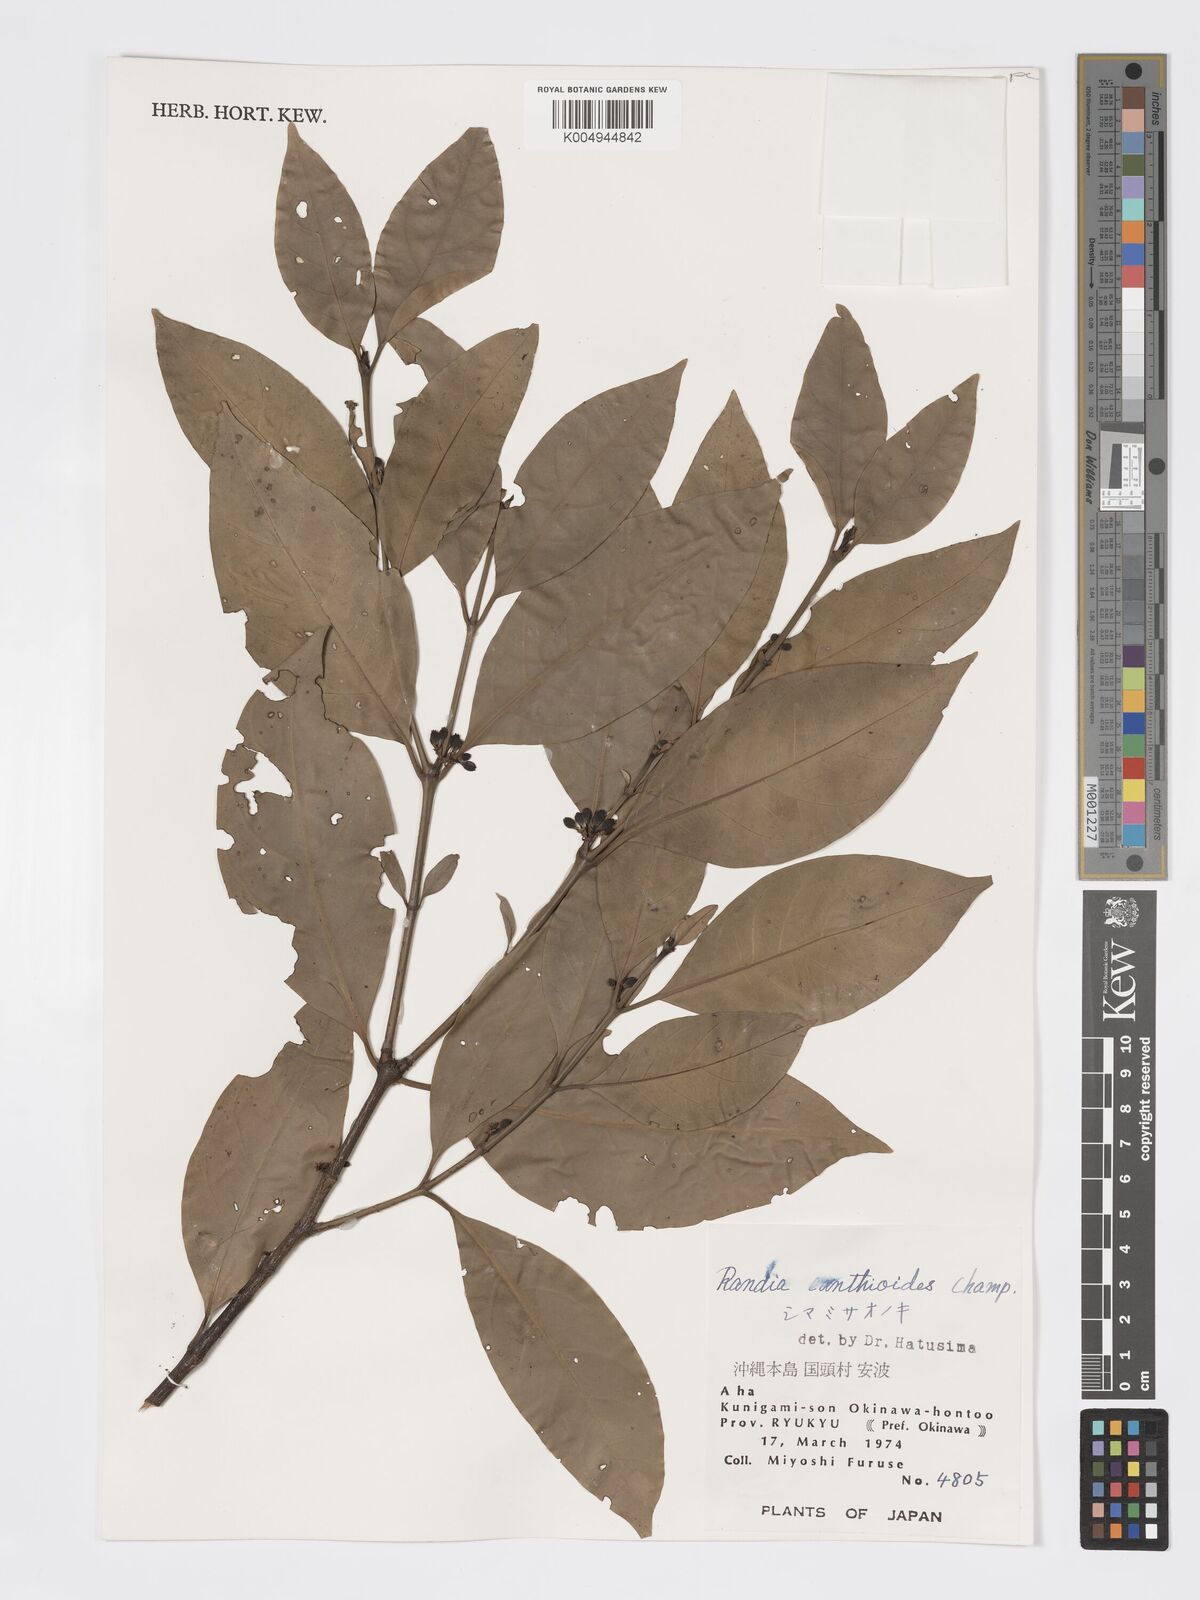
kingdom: Plantae
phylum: Tracheophyta
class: Magnoliopsida
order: Gentianales
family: Rubiaceae
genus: Aidia
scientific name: Aidia canthioides
